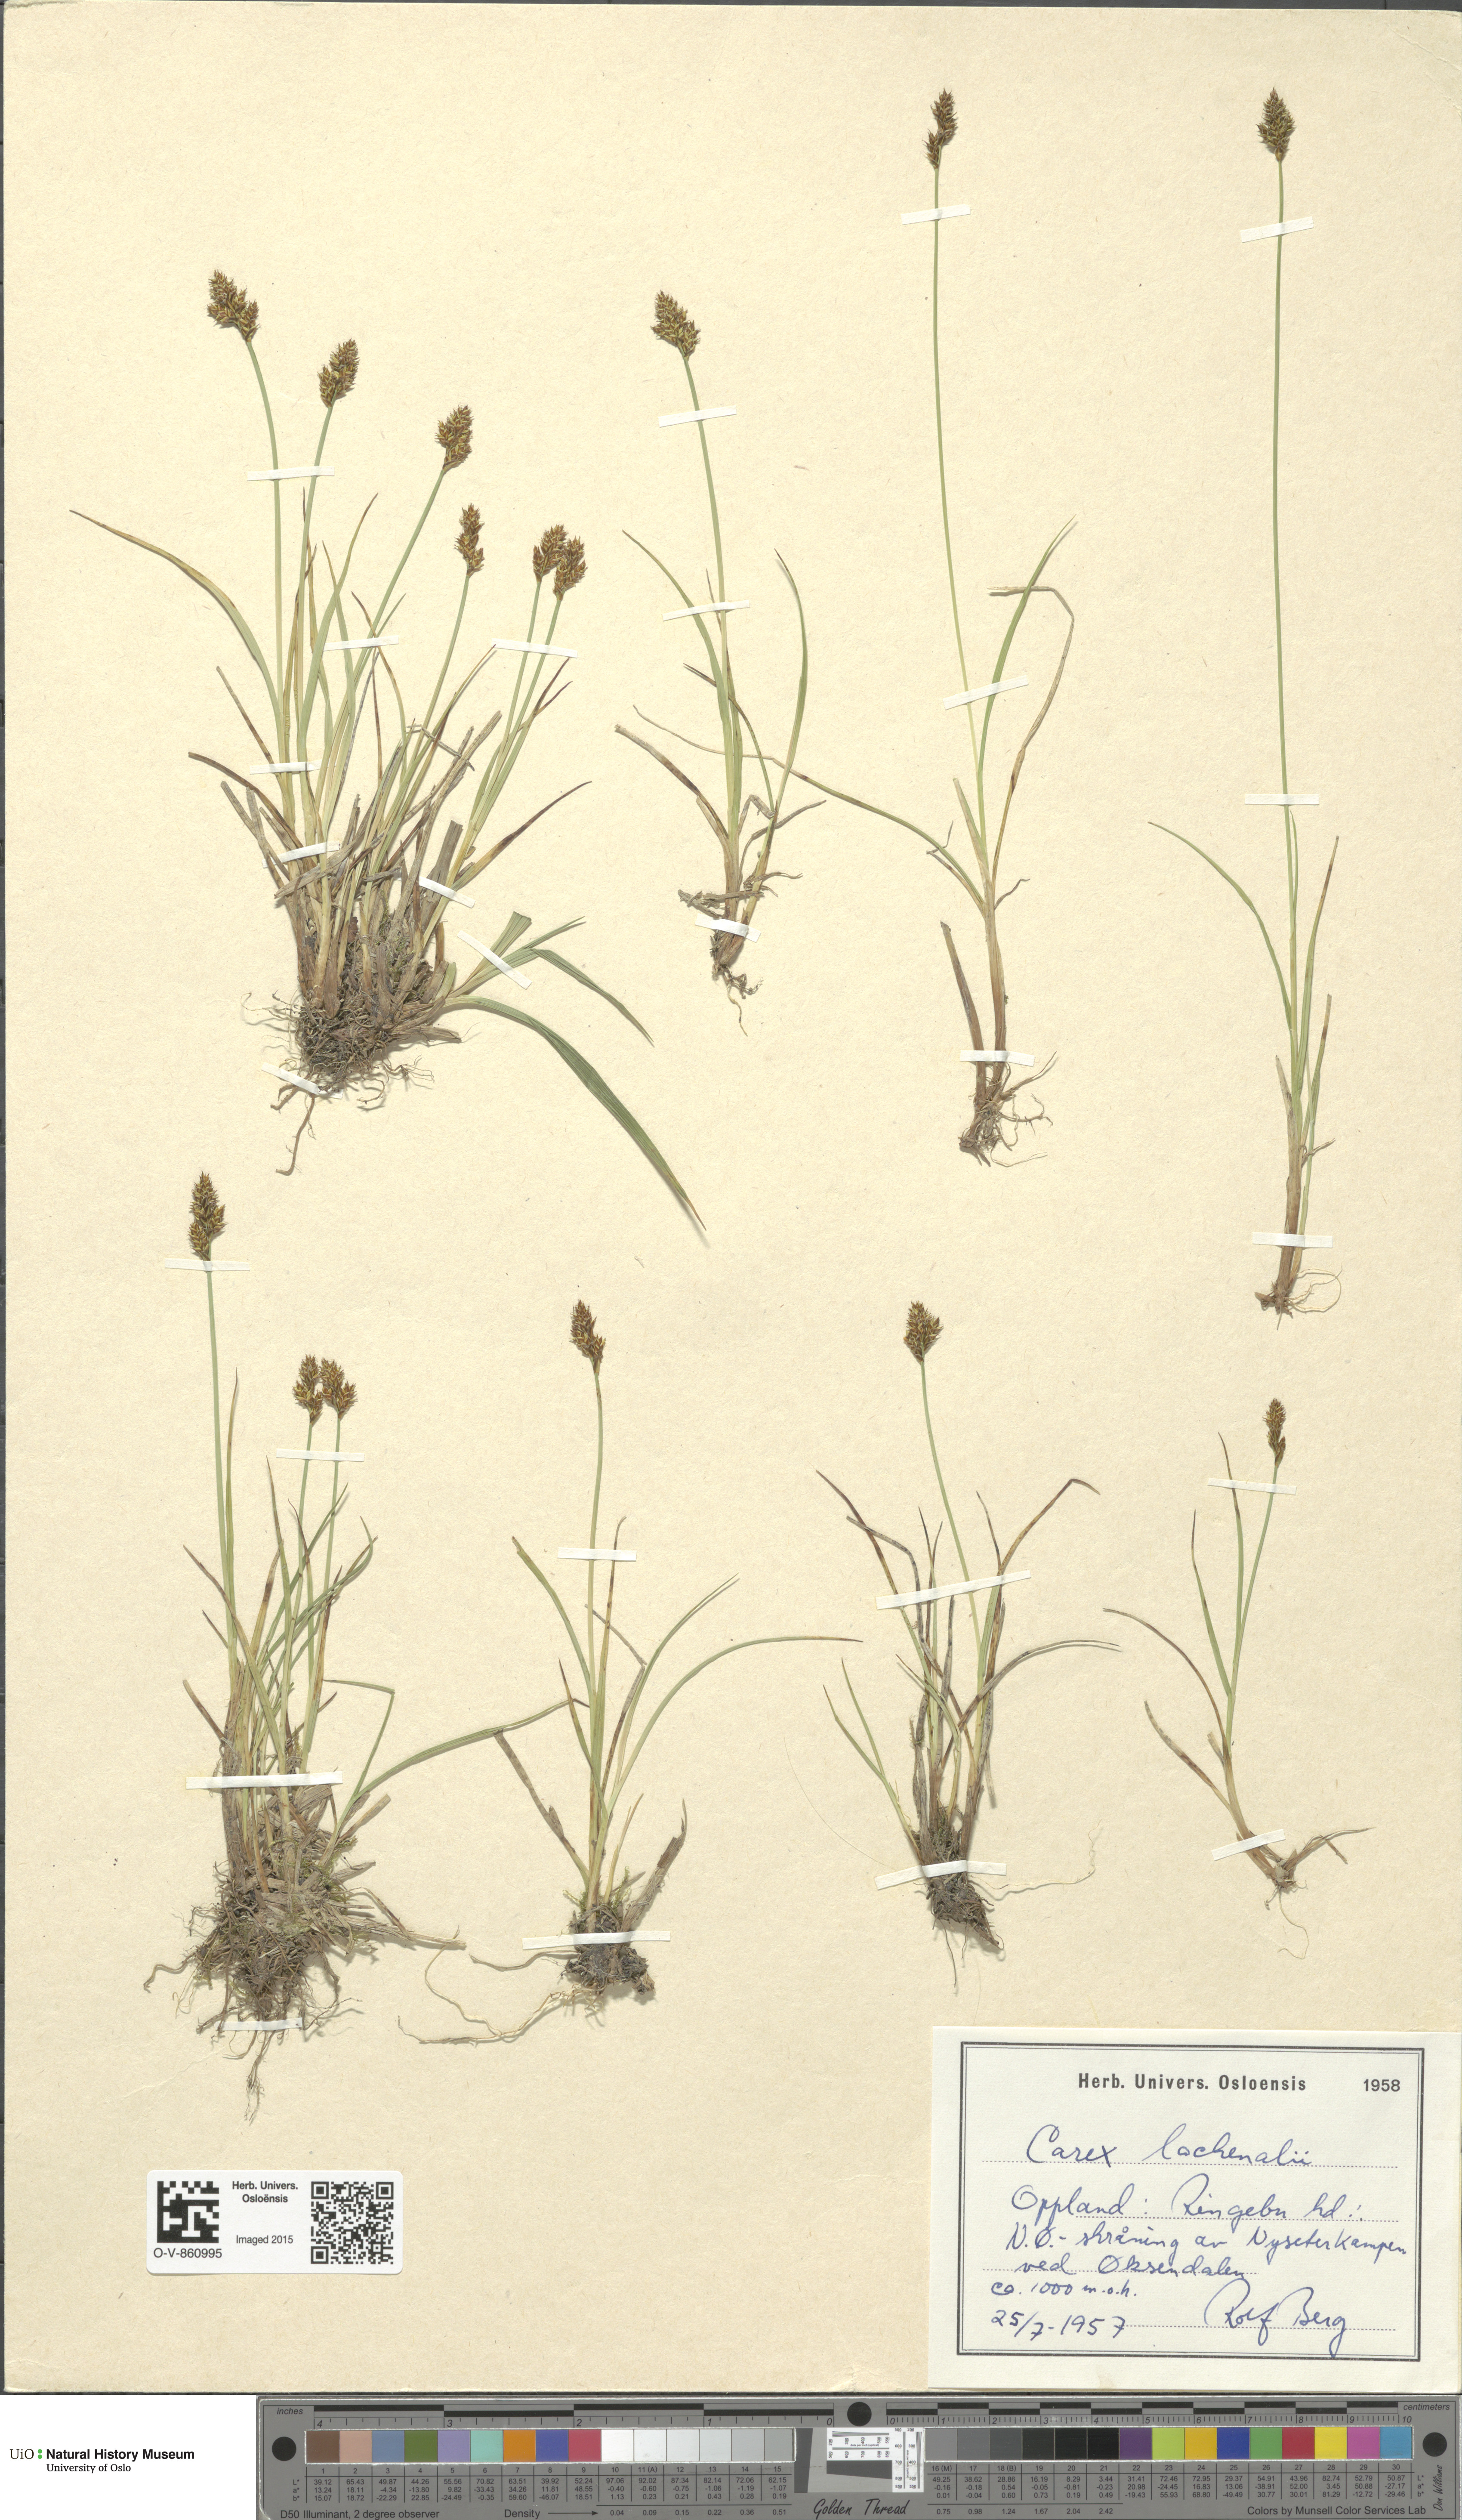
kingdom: Plantae
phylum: Tracheophyta
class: Liliopsida
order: Poales
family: Cyperaceae
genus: Carex
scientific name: Carex lachenalii
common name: Hare's-foot sedge
